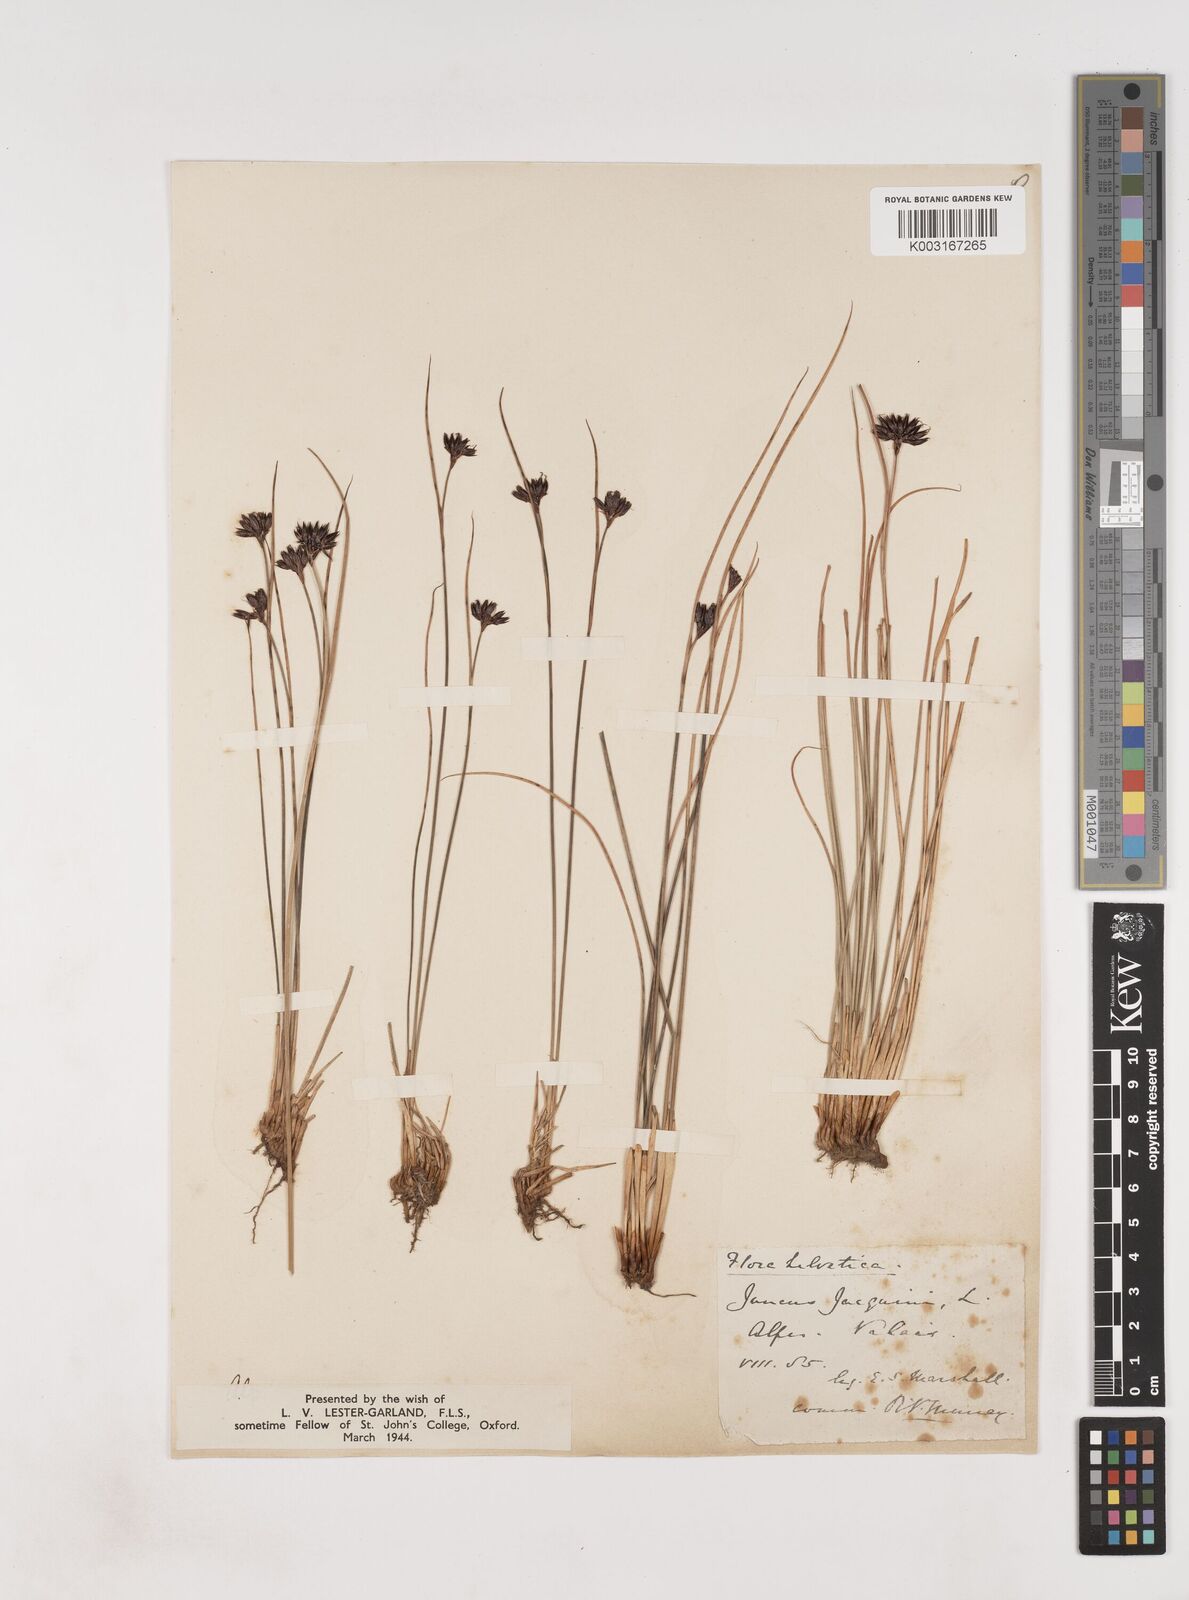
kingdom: Plantae
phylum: Tracheophyta
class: Liliopsida
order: Poales
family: Juncaceae
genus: Juncus
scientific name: Juncus jacquinii
